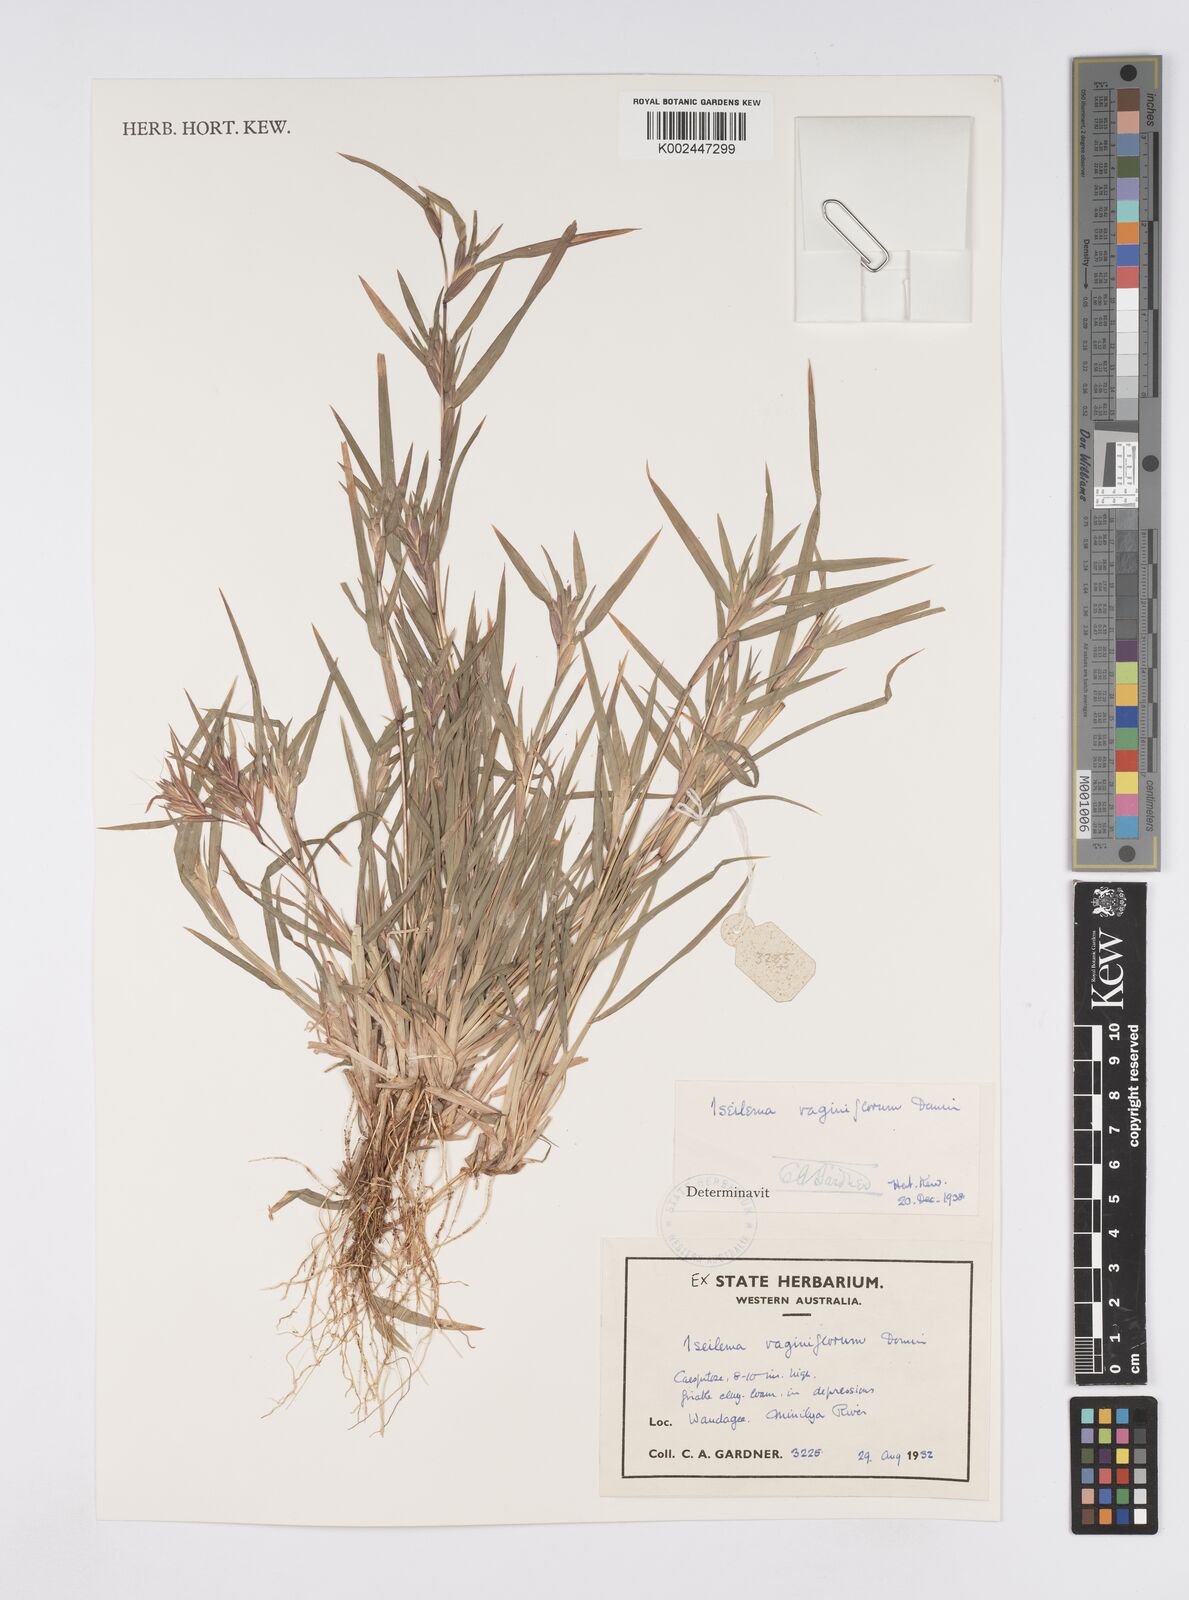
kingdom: Plantae
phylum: Tracheophyta
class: Liliopsida
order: Poales
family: Poaceae
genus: Iseilema
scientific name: Iseilema vaginiflorum
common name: Red flinders grass
